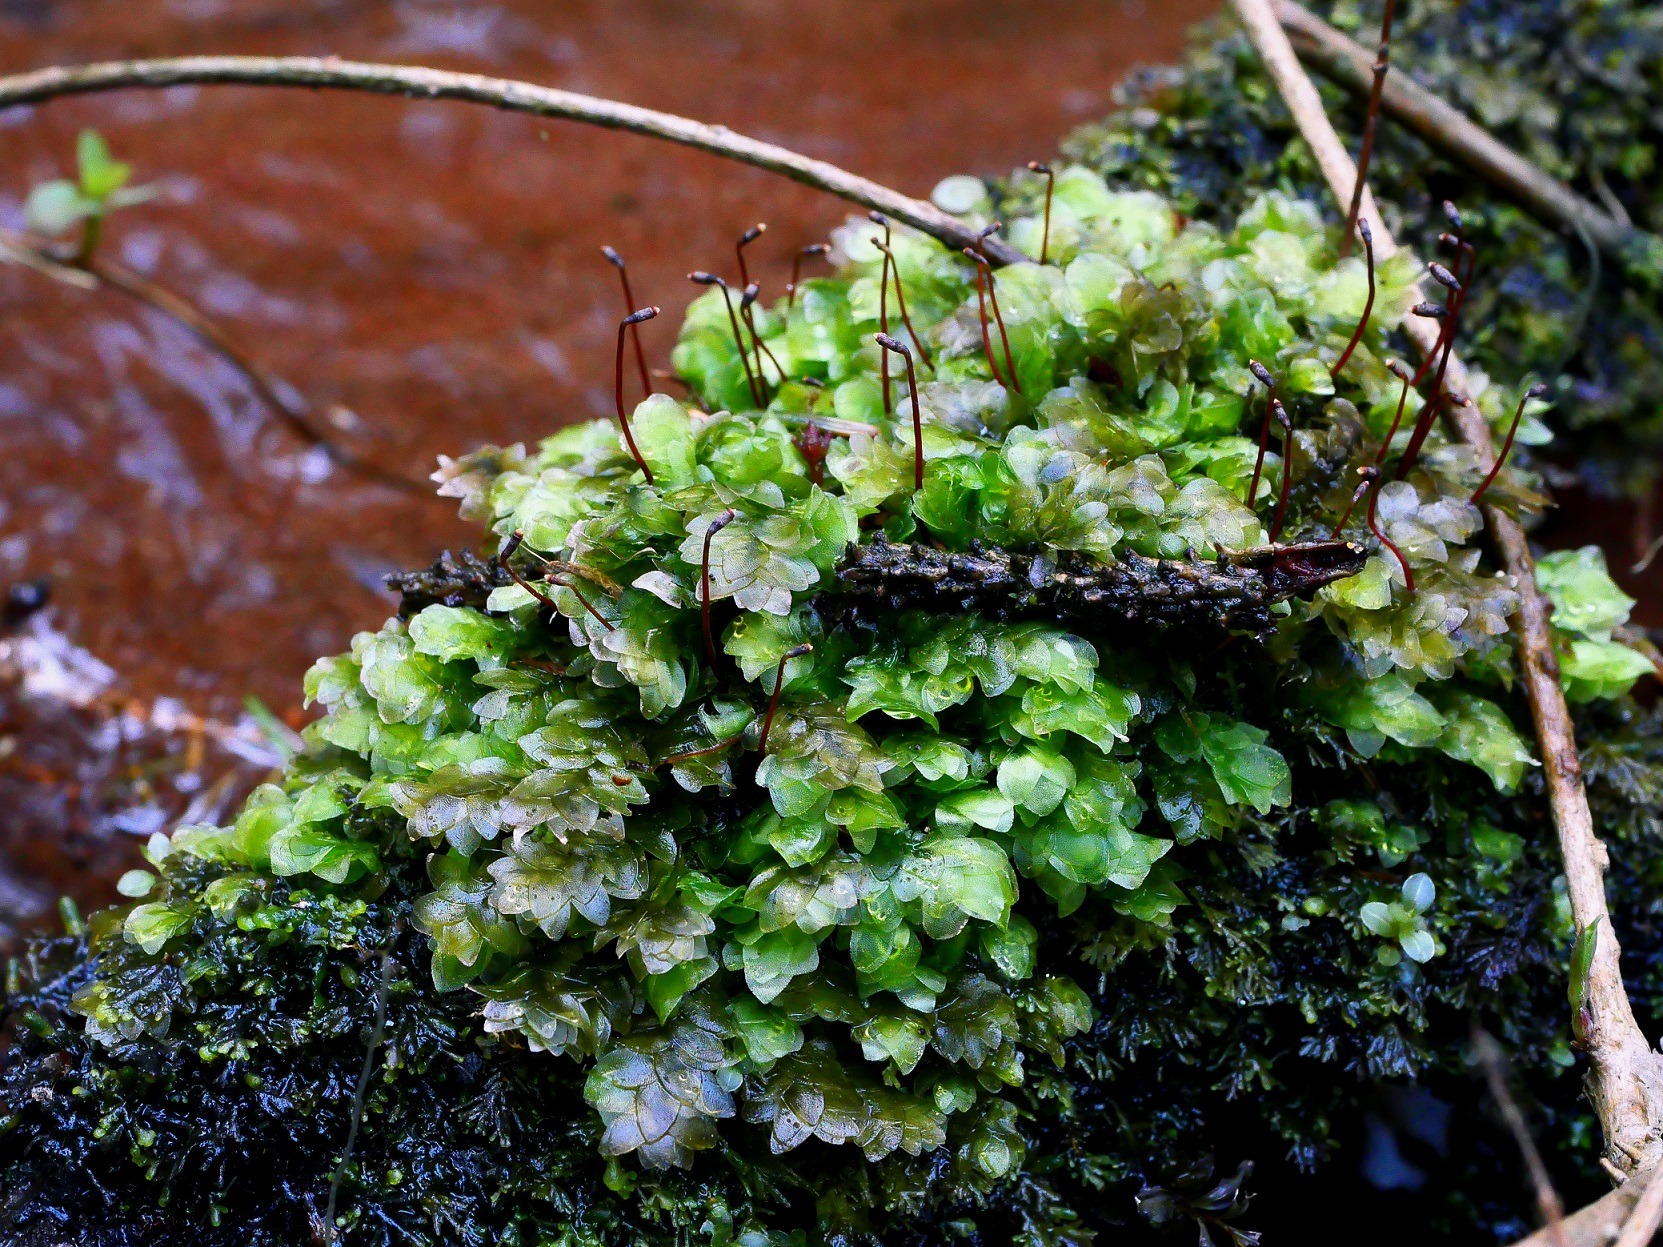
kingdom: Plantae
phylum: Bryophyta
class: Bryopsida
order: Hookeriales
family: Hookeriaceae
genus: Hookeria
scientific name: Hookeria lucens
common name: Skinnende dronningemos
